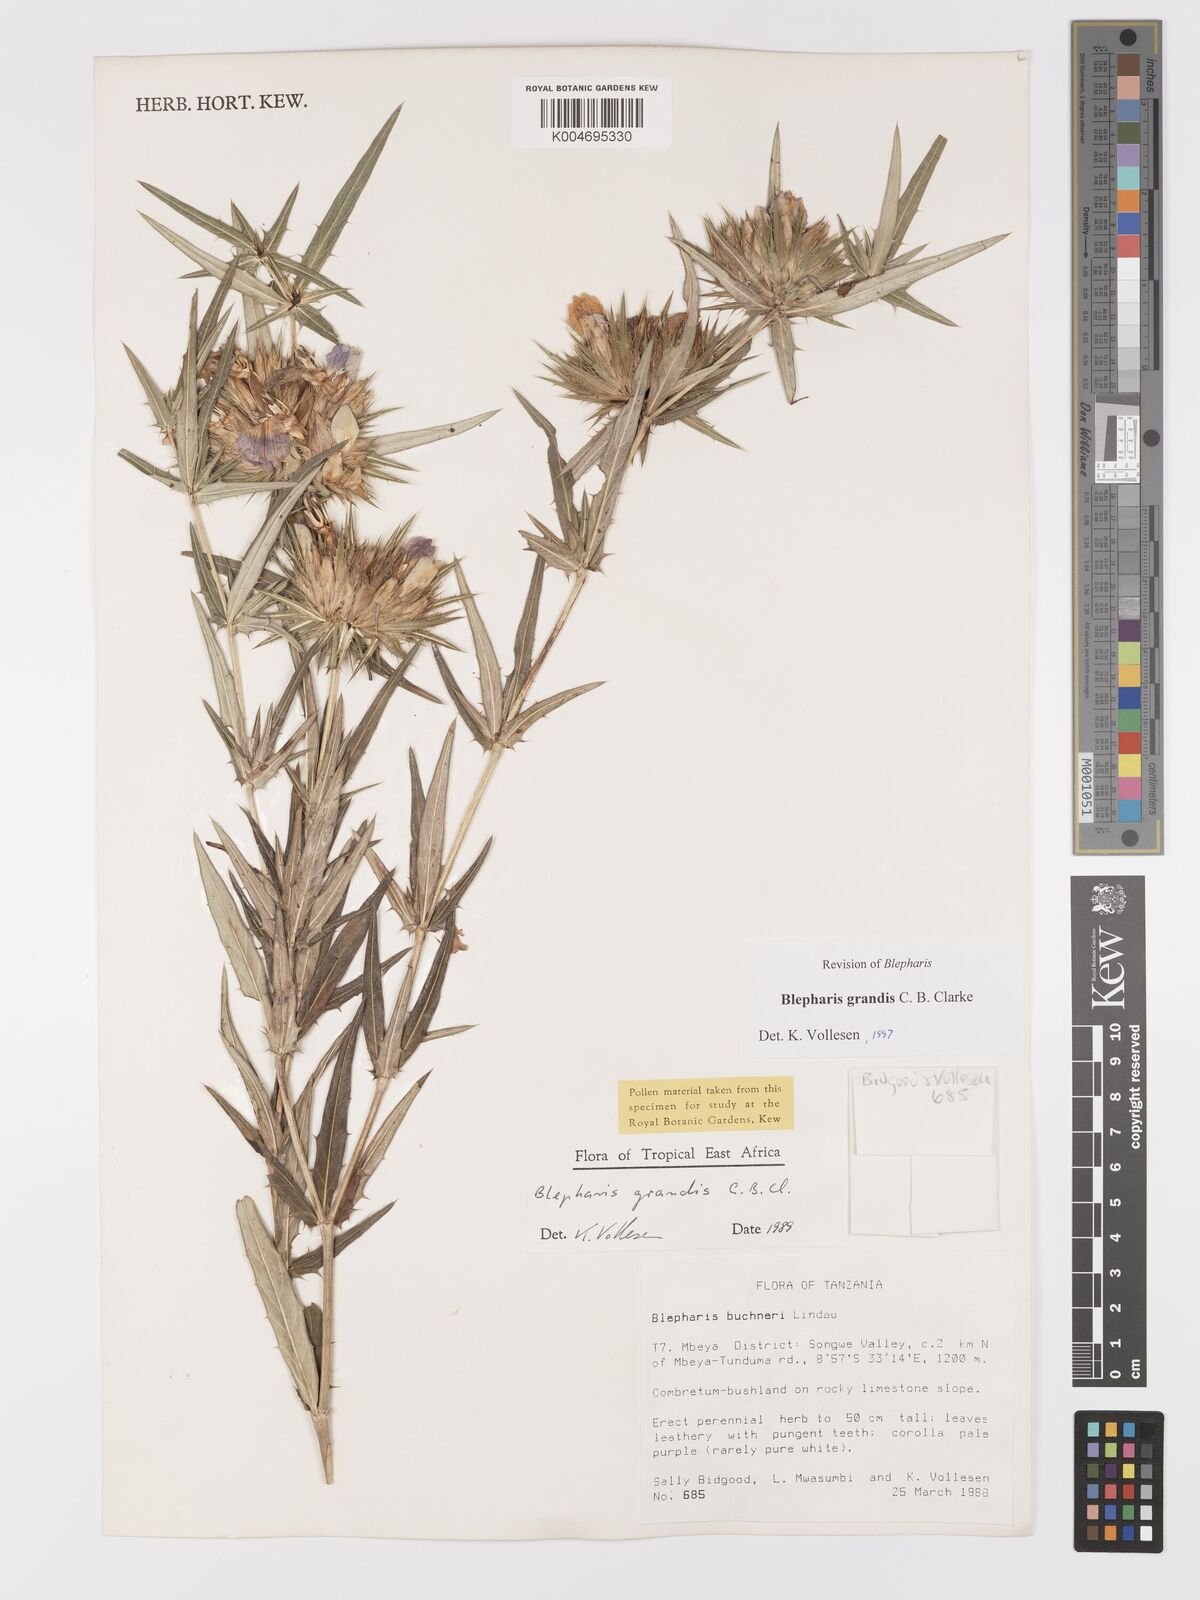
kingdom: Plantae
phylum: Tracheophyta
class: Magnoliopsida
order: Lamiales
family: Acanthaceae
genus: Blepharis
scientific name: Blepharis grandis
